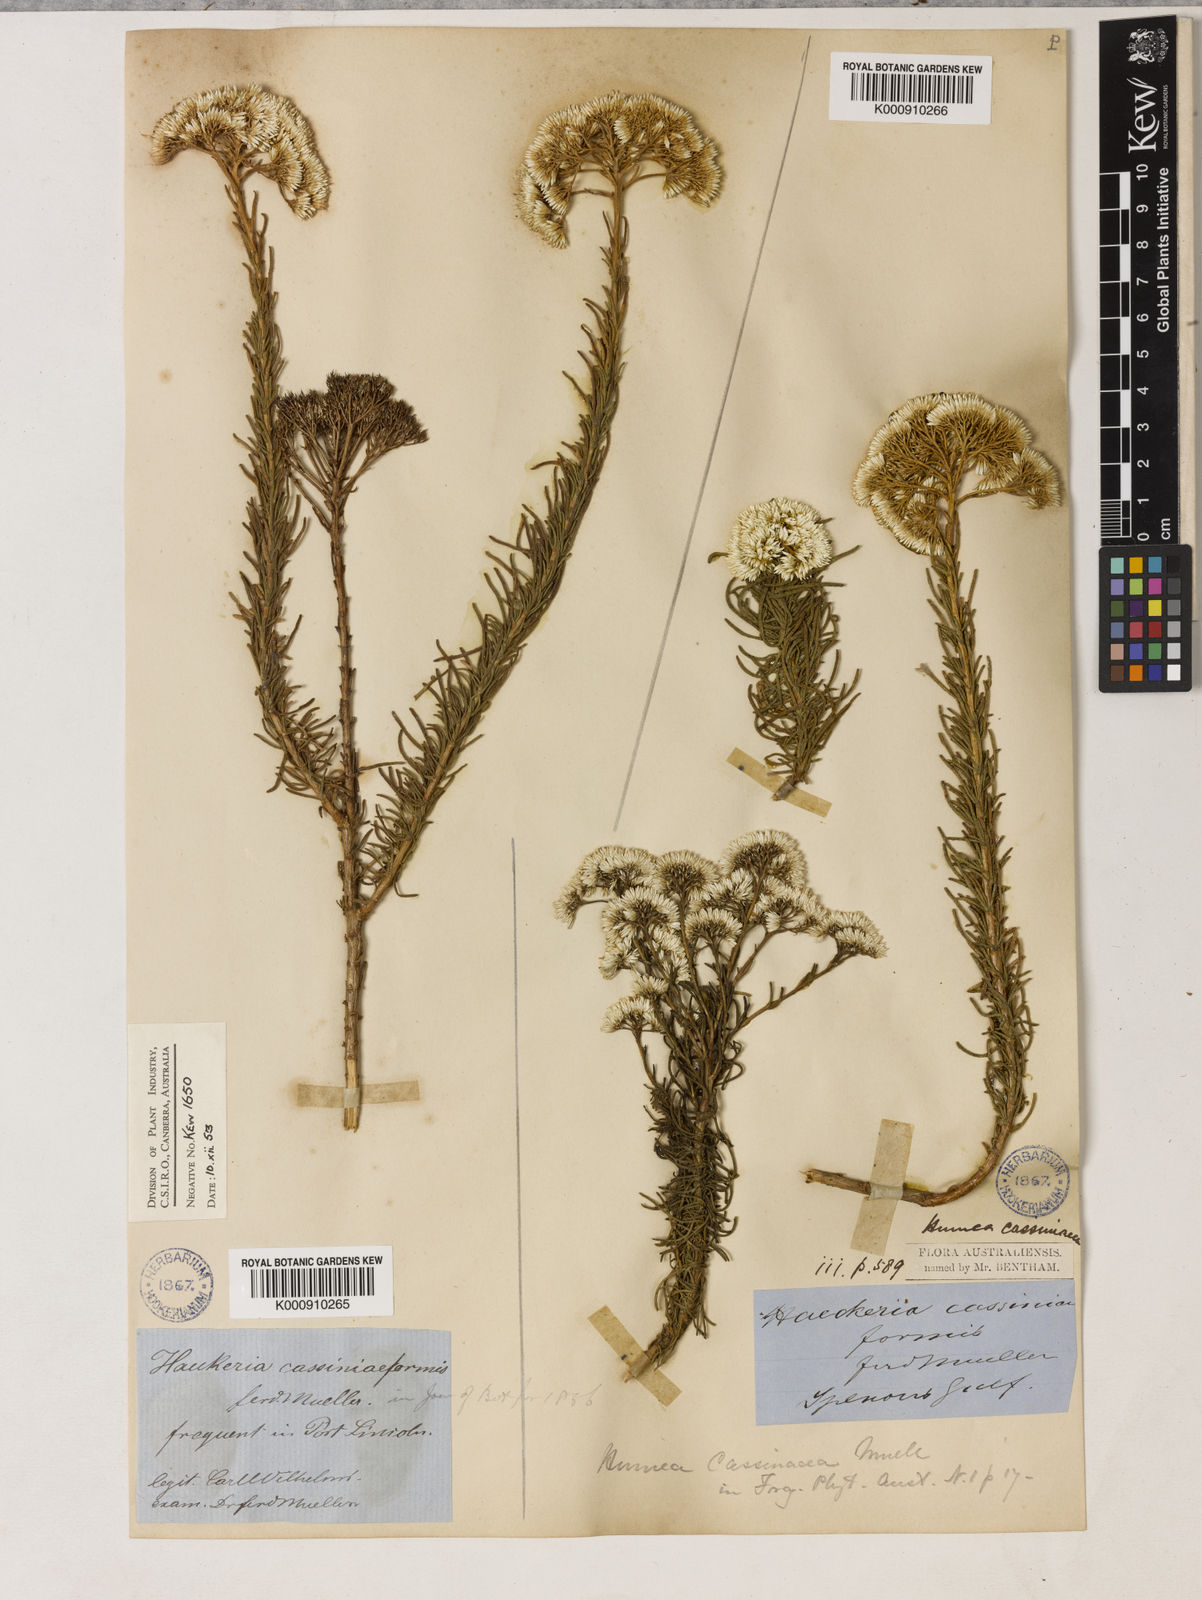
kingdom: Plantae
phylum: Tracheophyta
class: Magnoliopsida
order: Asterales
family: Asteraceae
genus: Haeckeria
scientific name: Haeckeria cassiniiformis
